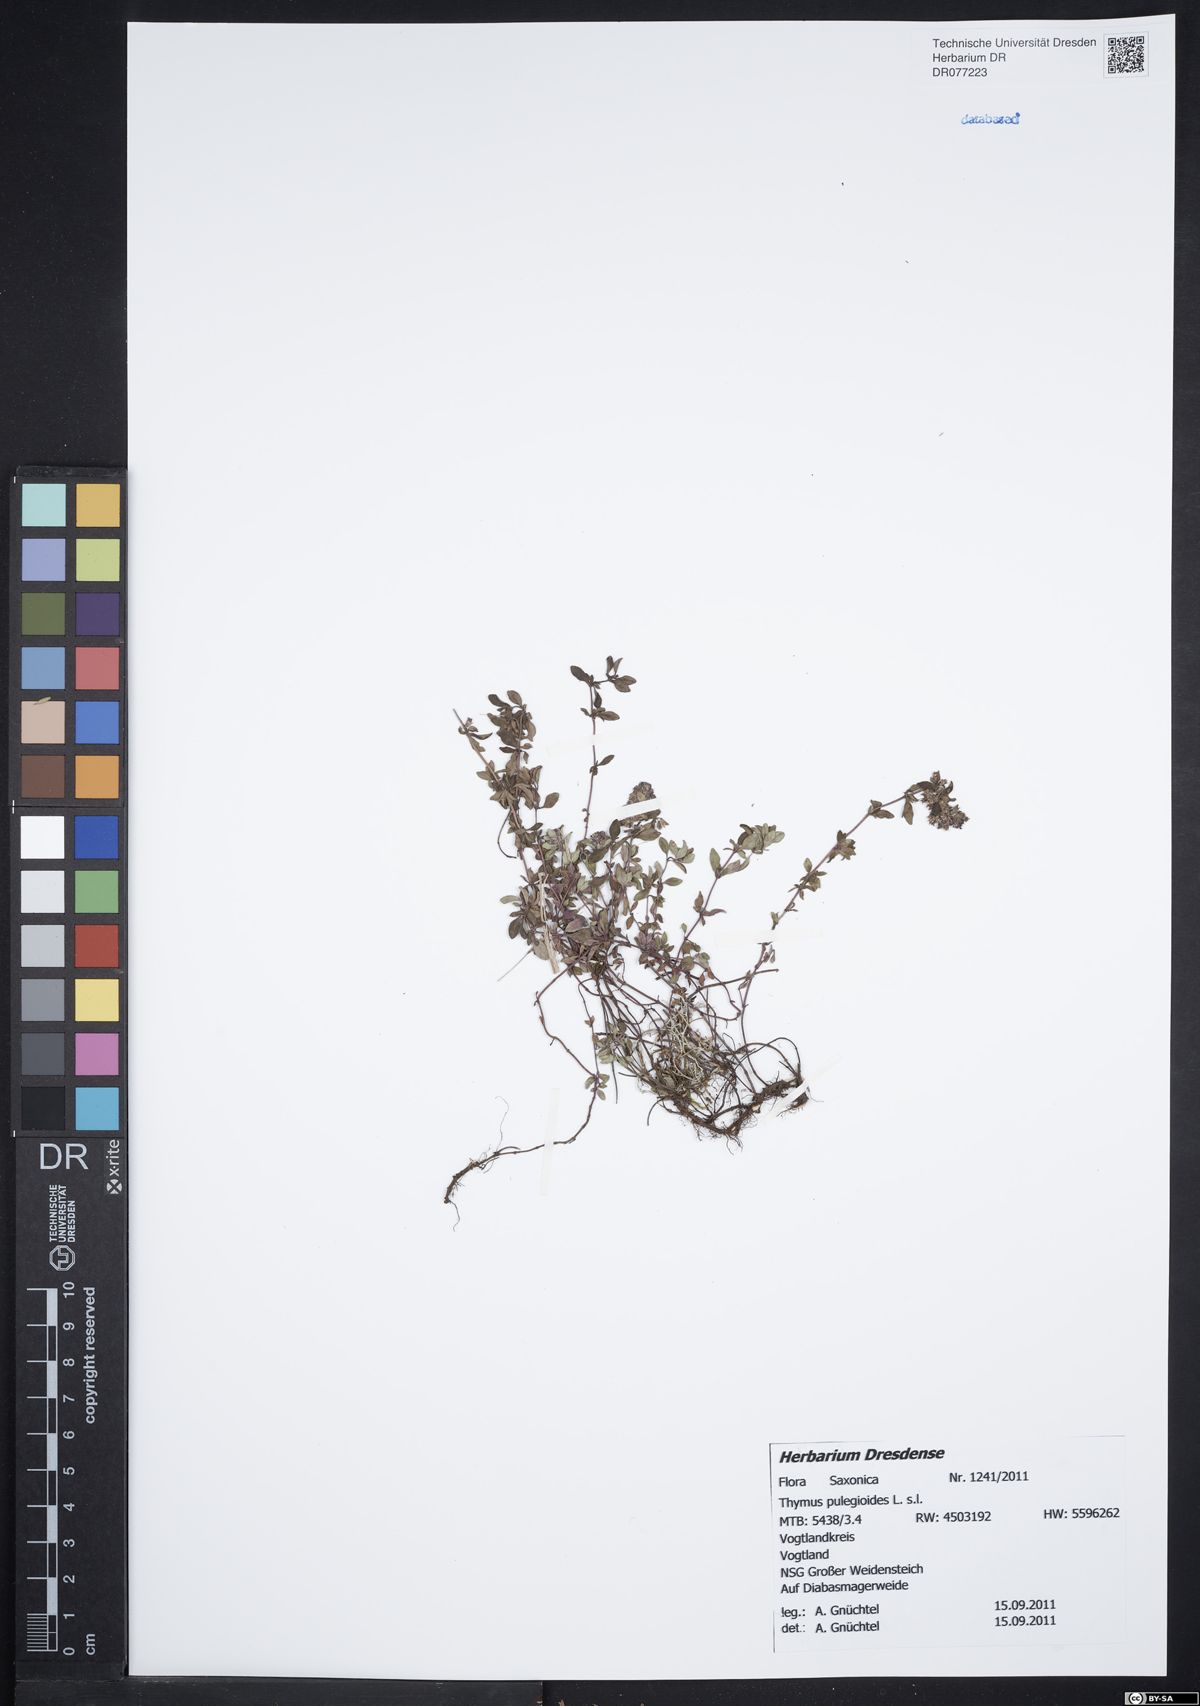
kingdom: Plantae
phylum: Tracheophyta
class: Magnoliopsida
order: Lamiales
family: Lamiaceae
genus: Thymus
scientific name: Thymus pulegioides
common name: Large thyme
